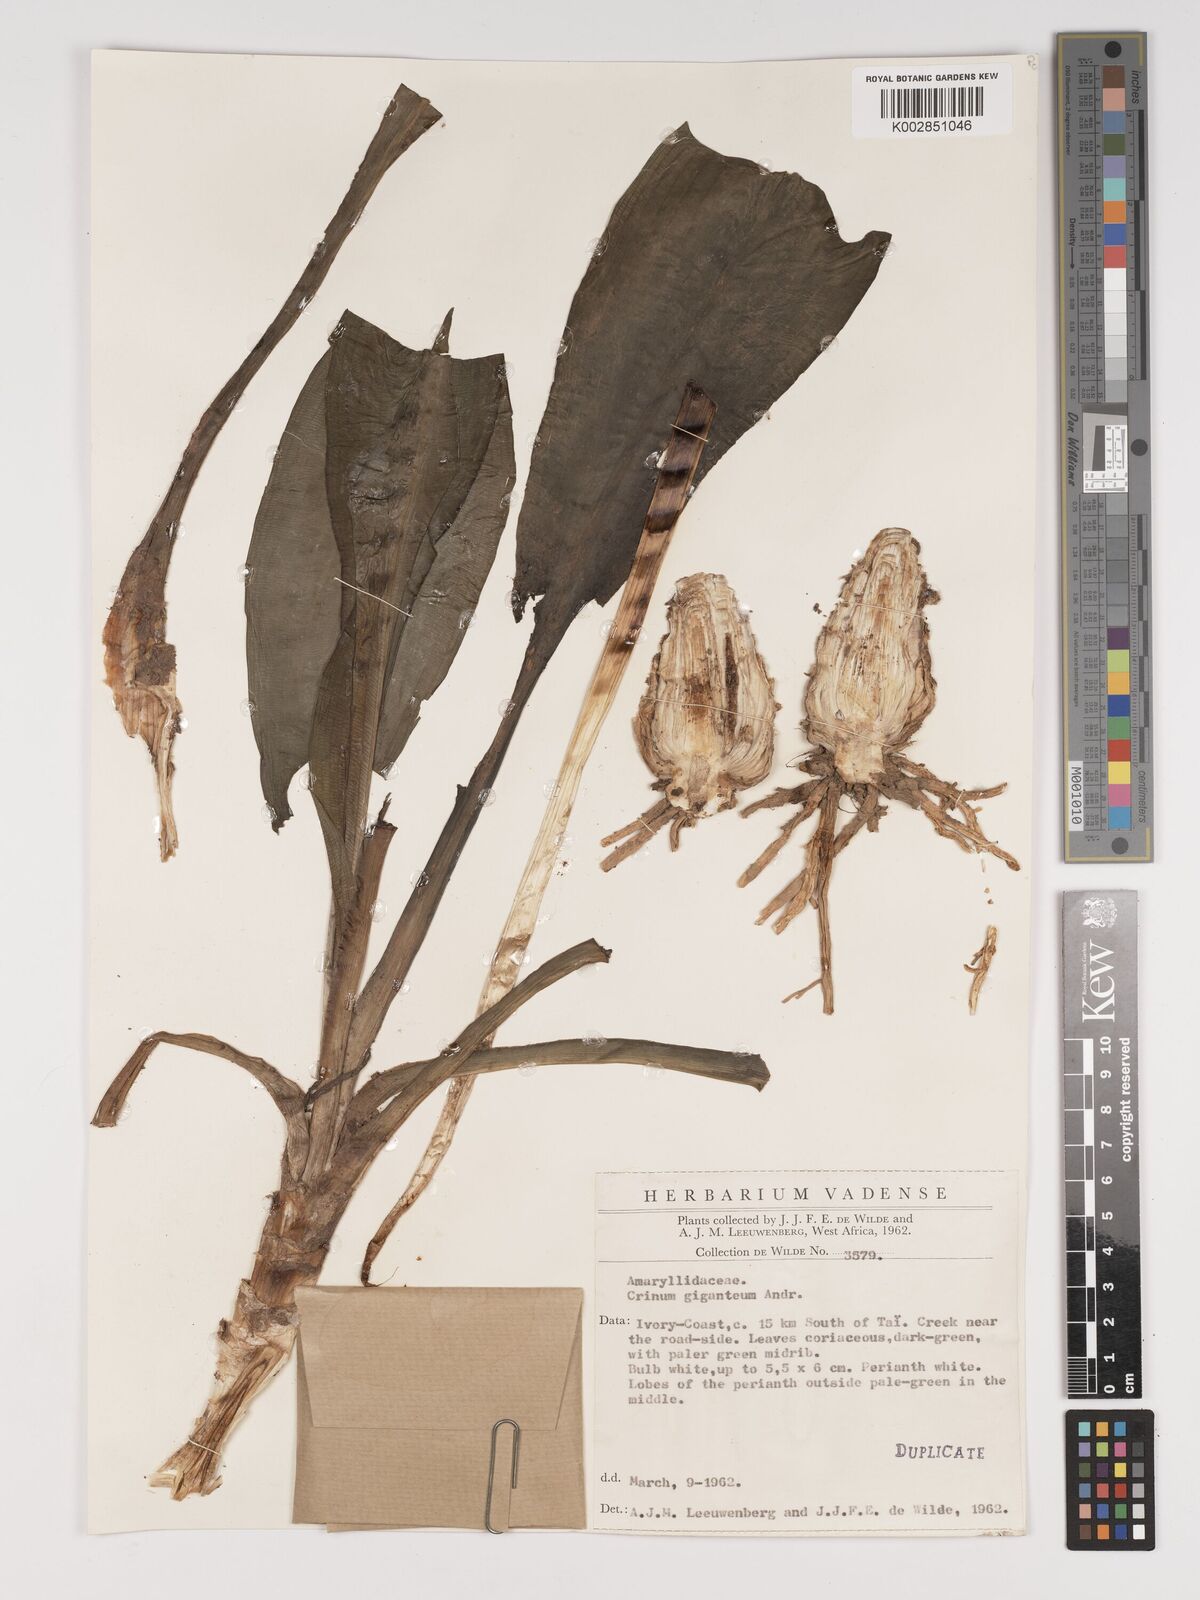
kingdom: Plantae
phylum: Tracheophyta
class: Liliopsida
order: Asparagales
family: Amaryllidaceae
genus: Crinum
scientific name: Crinum jagus
